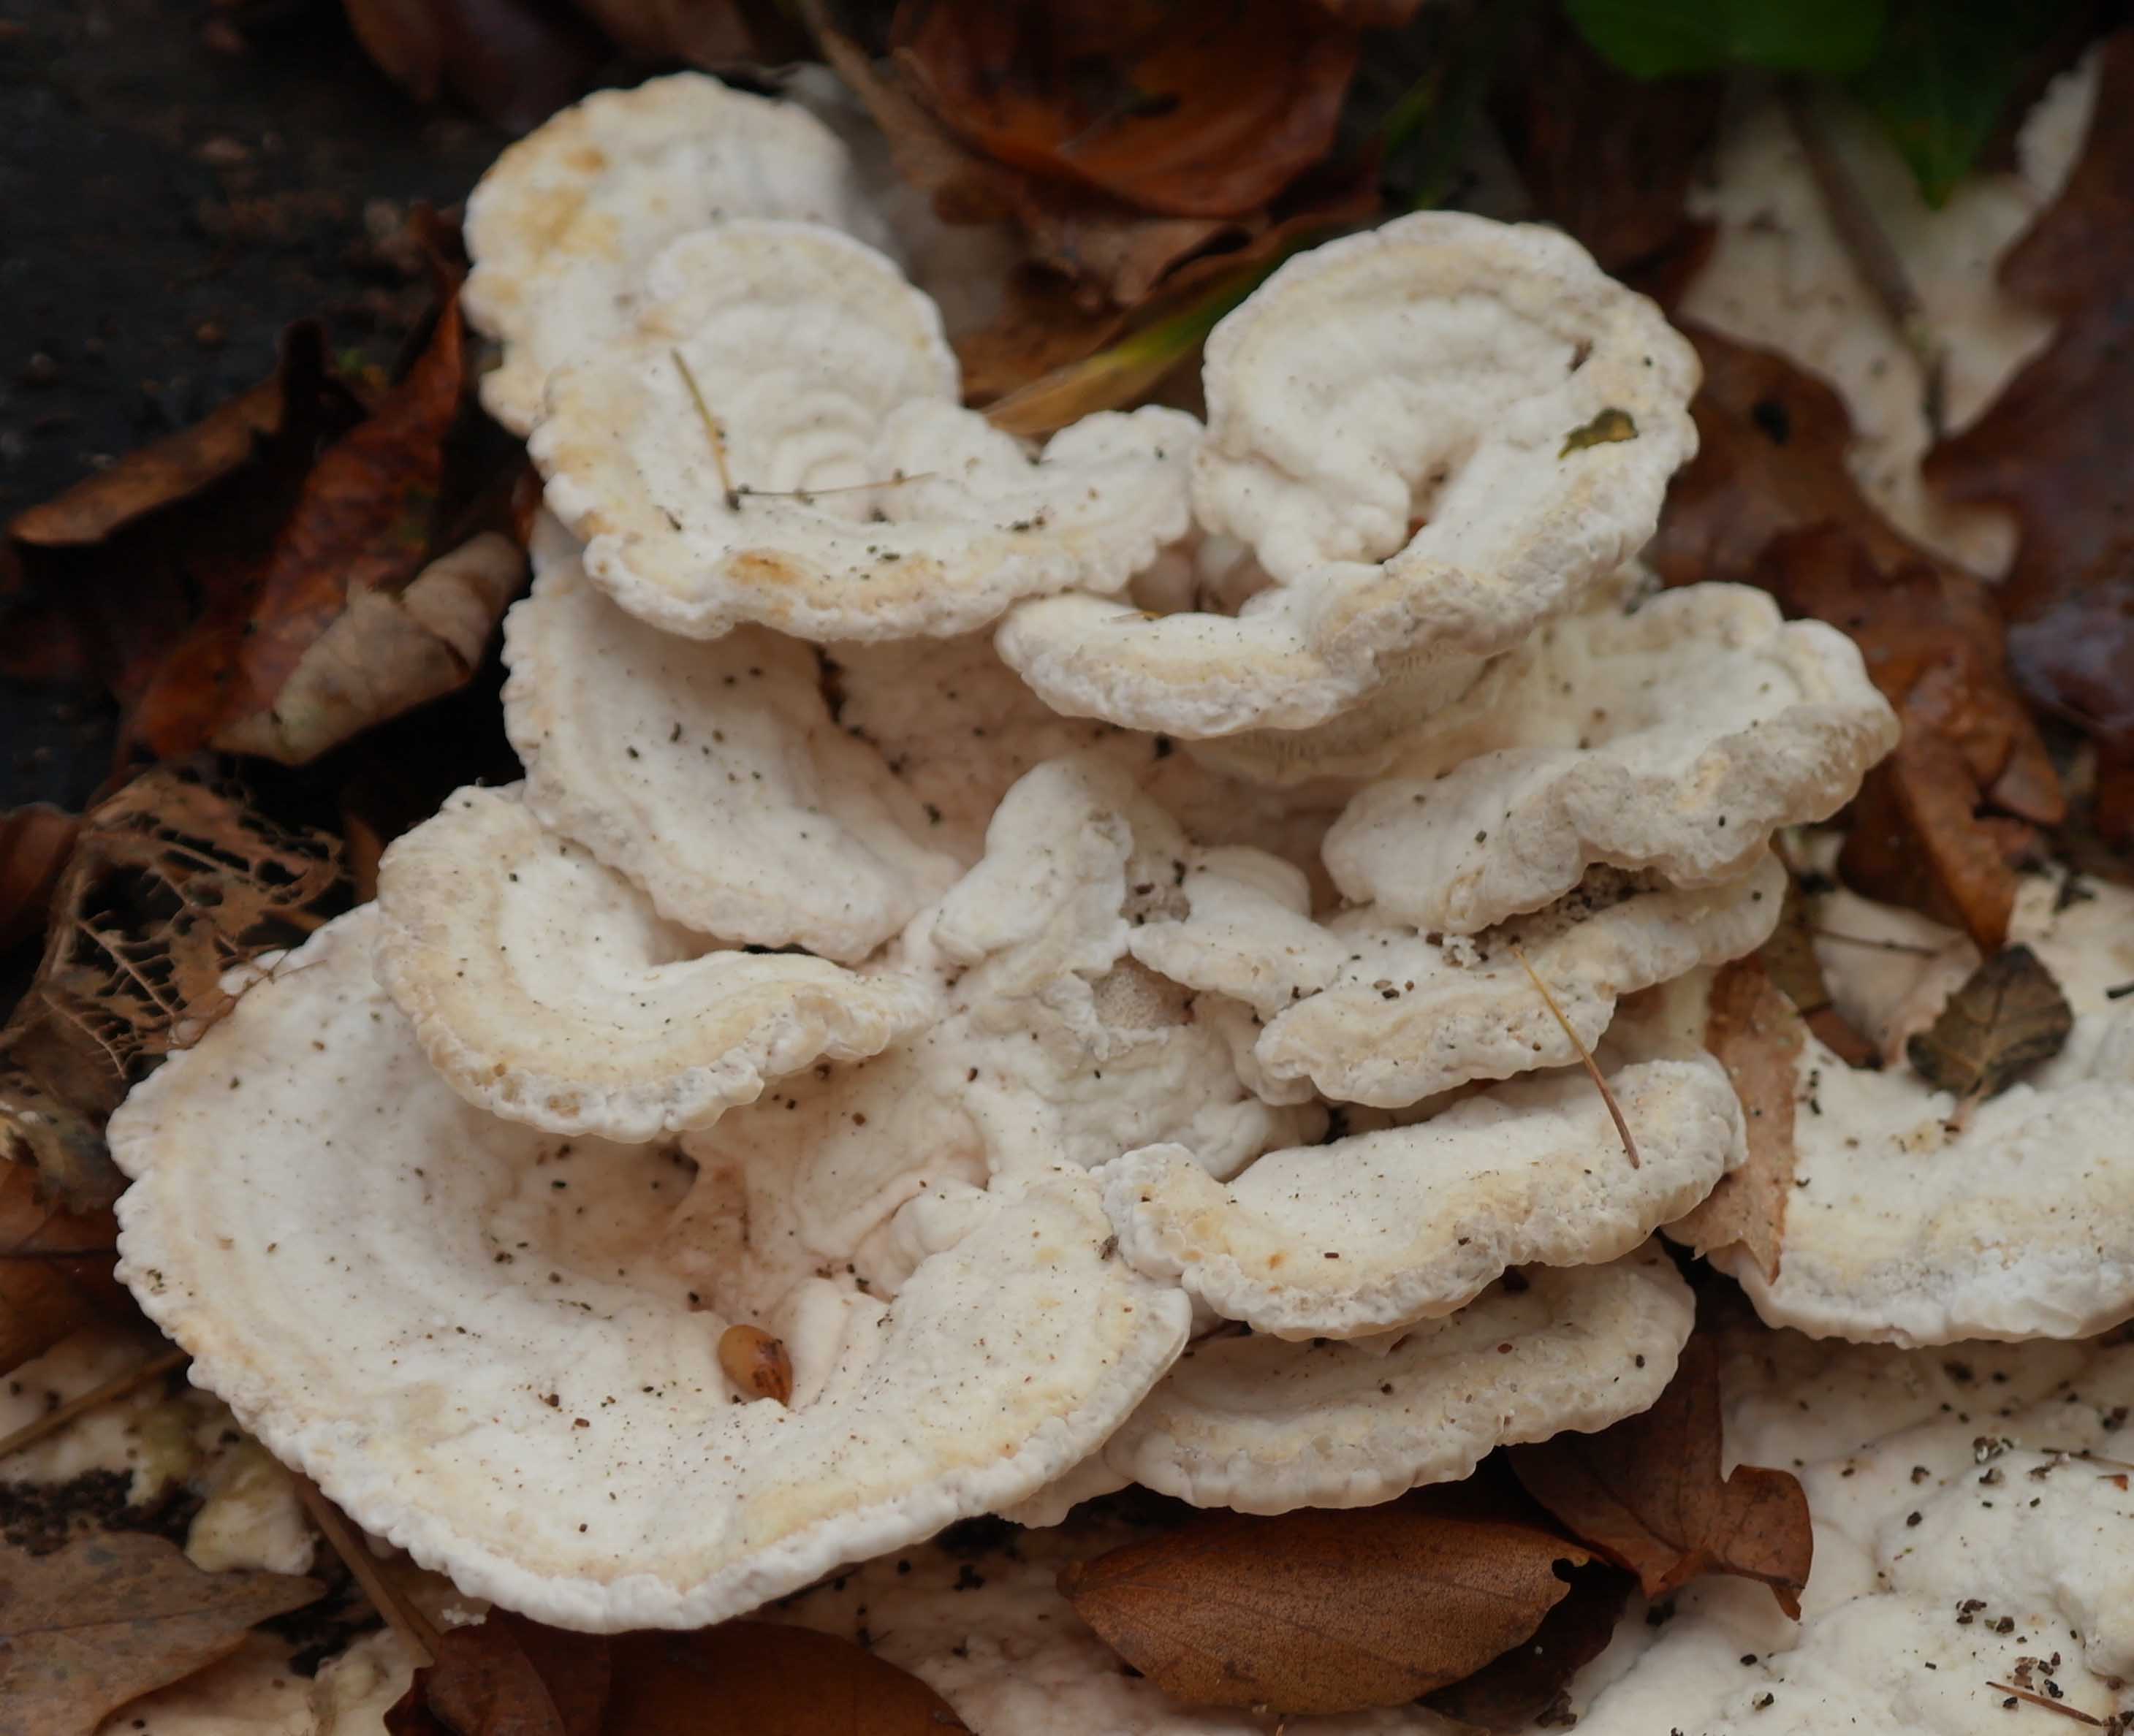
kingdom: Fungi
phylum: Basidiomycota
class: Agaricomycetes
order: Polyporales
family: Polyporaceae
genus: Trametes
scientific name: Trametes gibbosa
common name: puklet læderporesvamp
